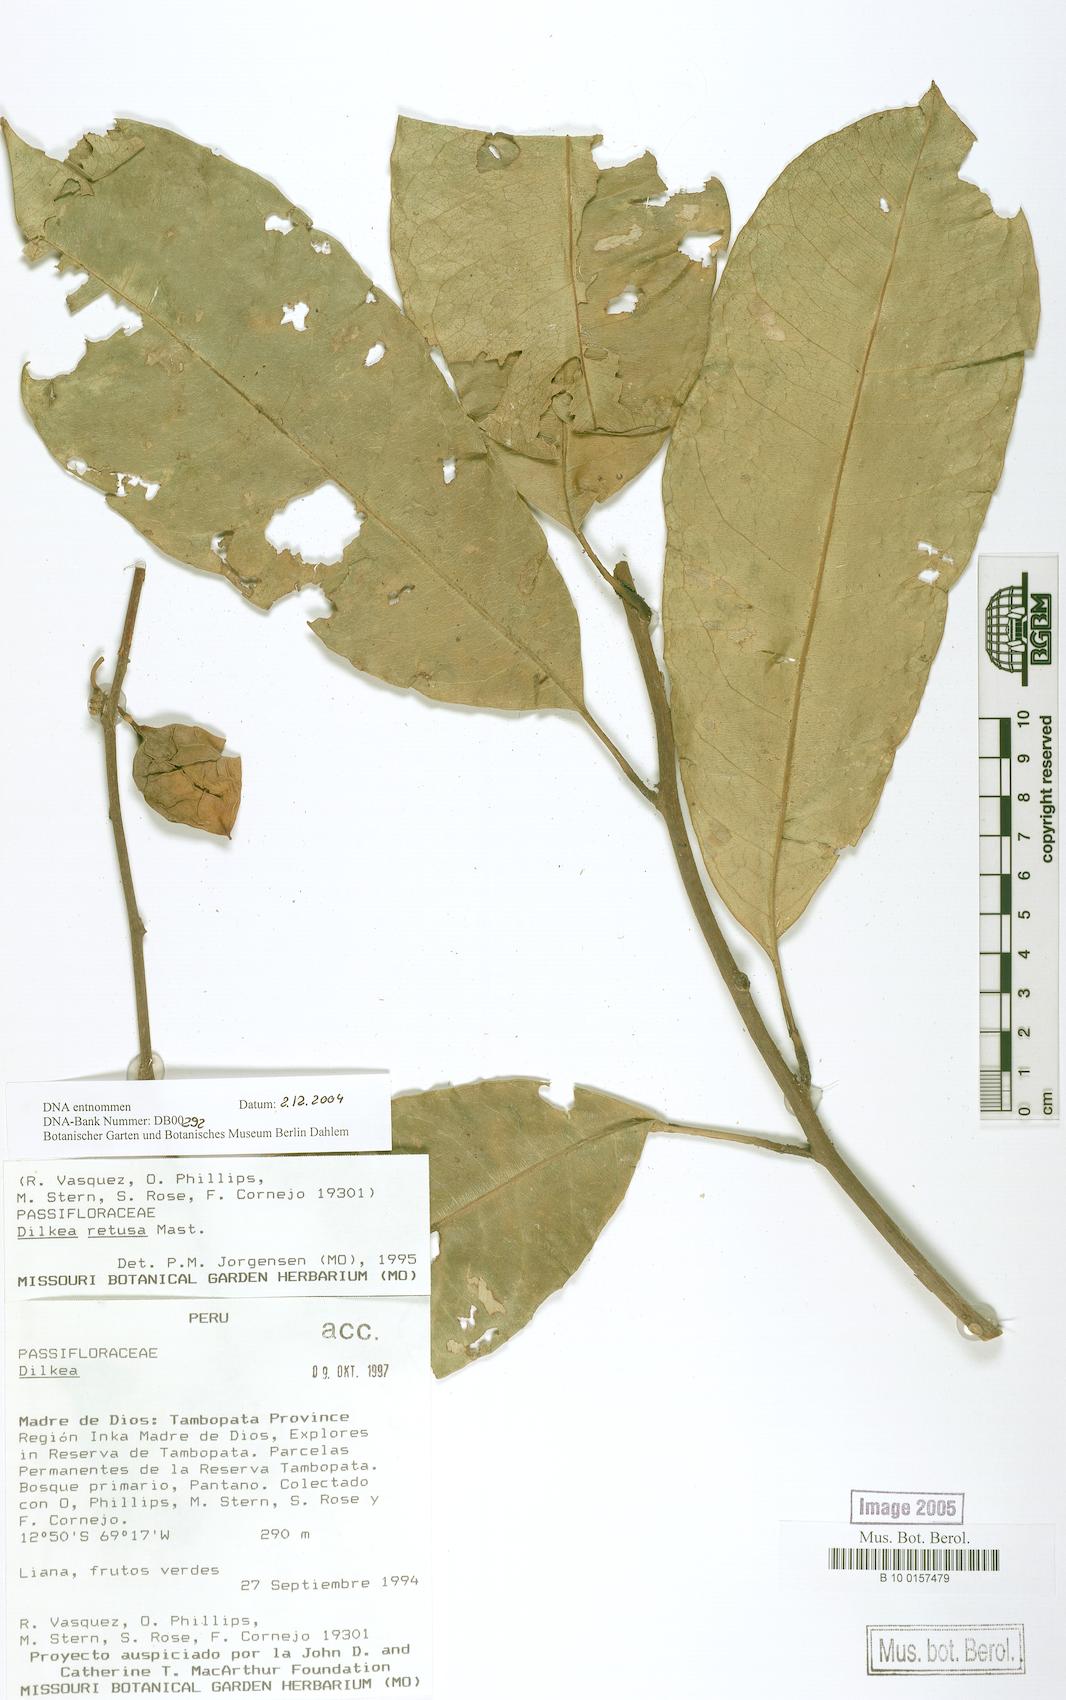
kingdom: Plantae
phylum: Tracheophyta
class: Magnoliopsida
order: Malpighiales
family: Passifloraceae
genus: Dilkea
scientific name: Dilkea retusa
